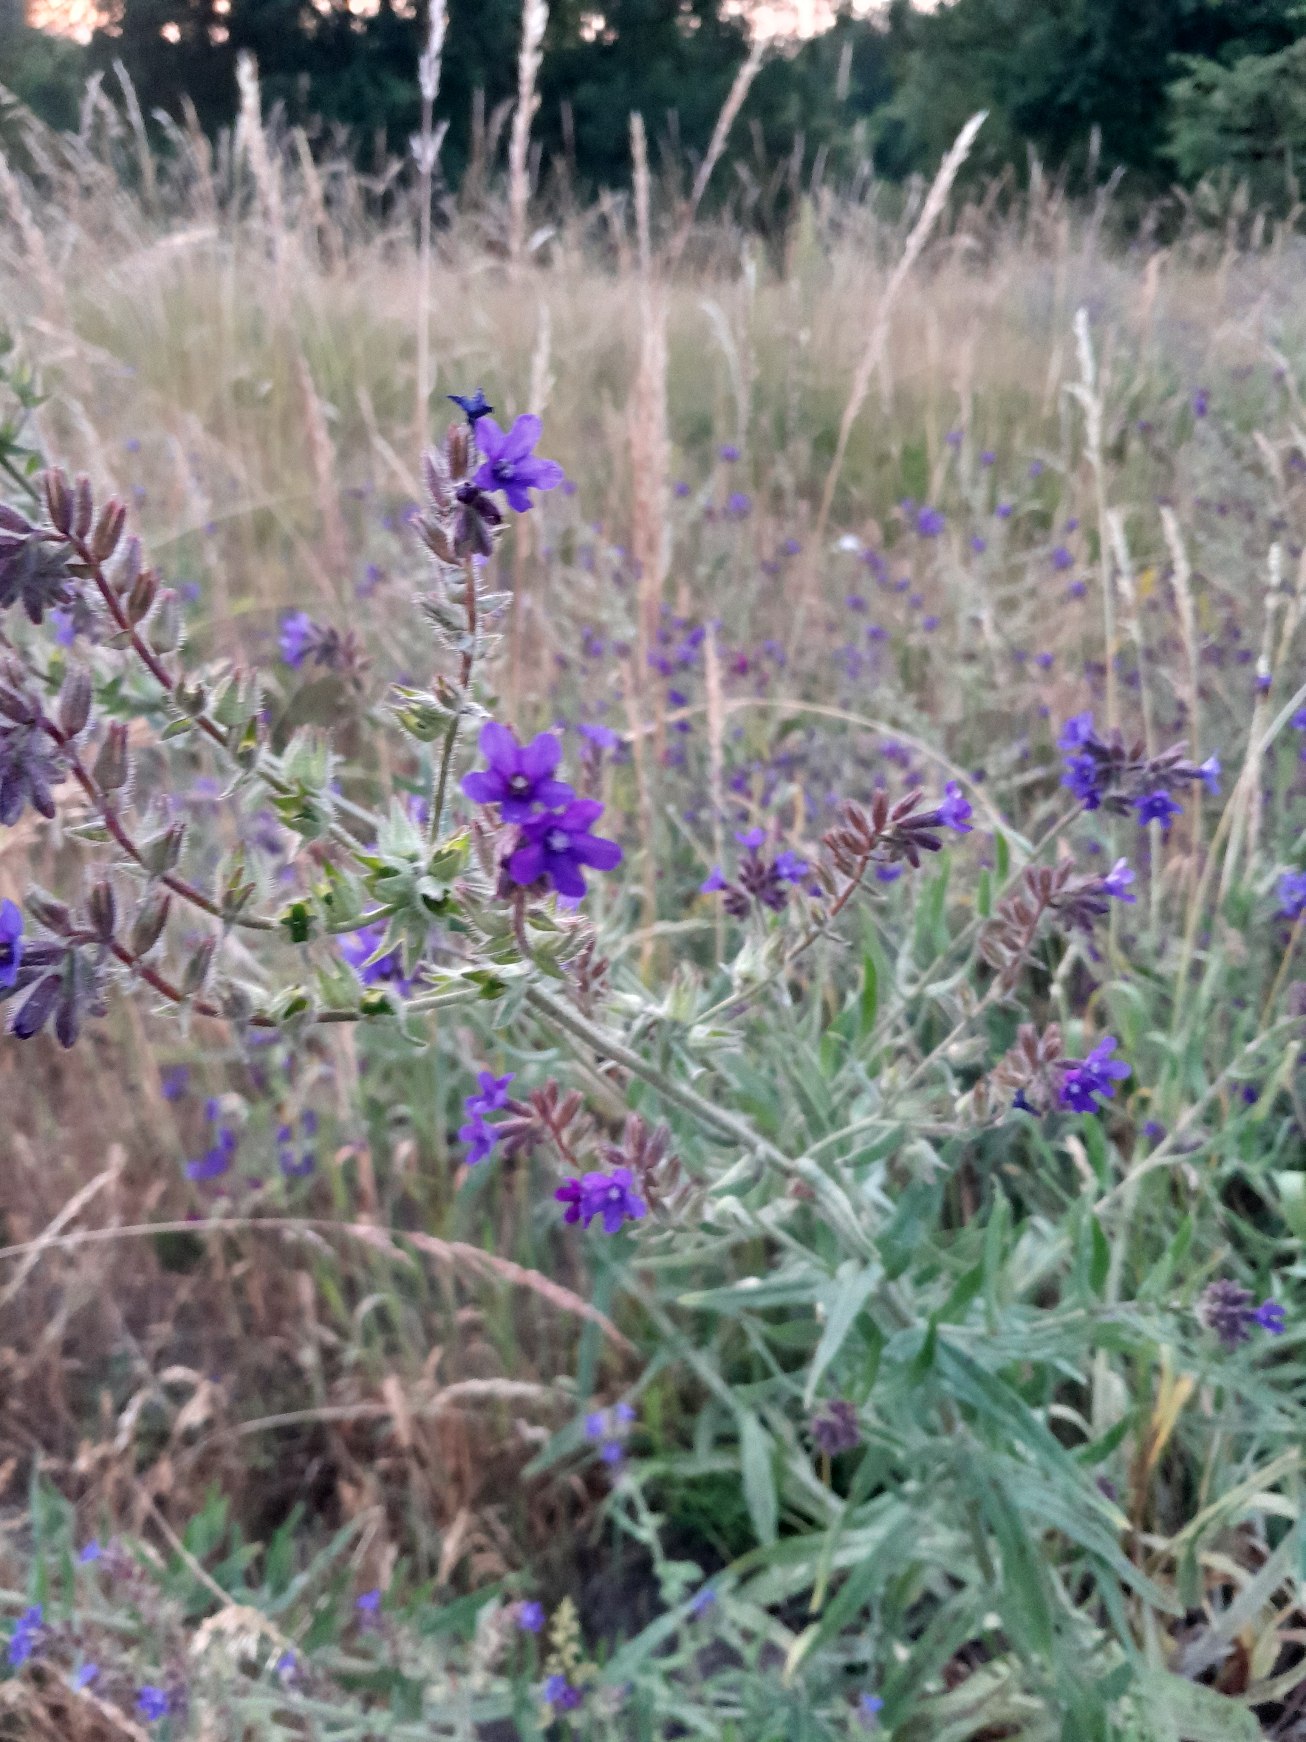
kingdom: Plantae
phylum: Tracheophyta
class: Magnoliopsida
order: Boraginales
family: Boraginaceae
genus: Anchusa
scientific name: Anchusa officinalis
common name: Læge-oksetunge
